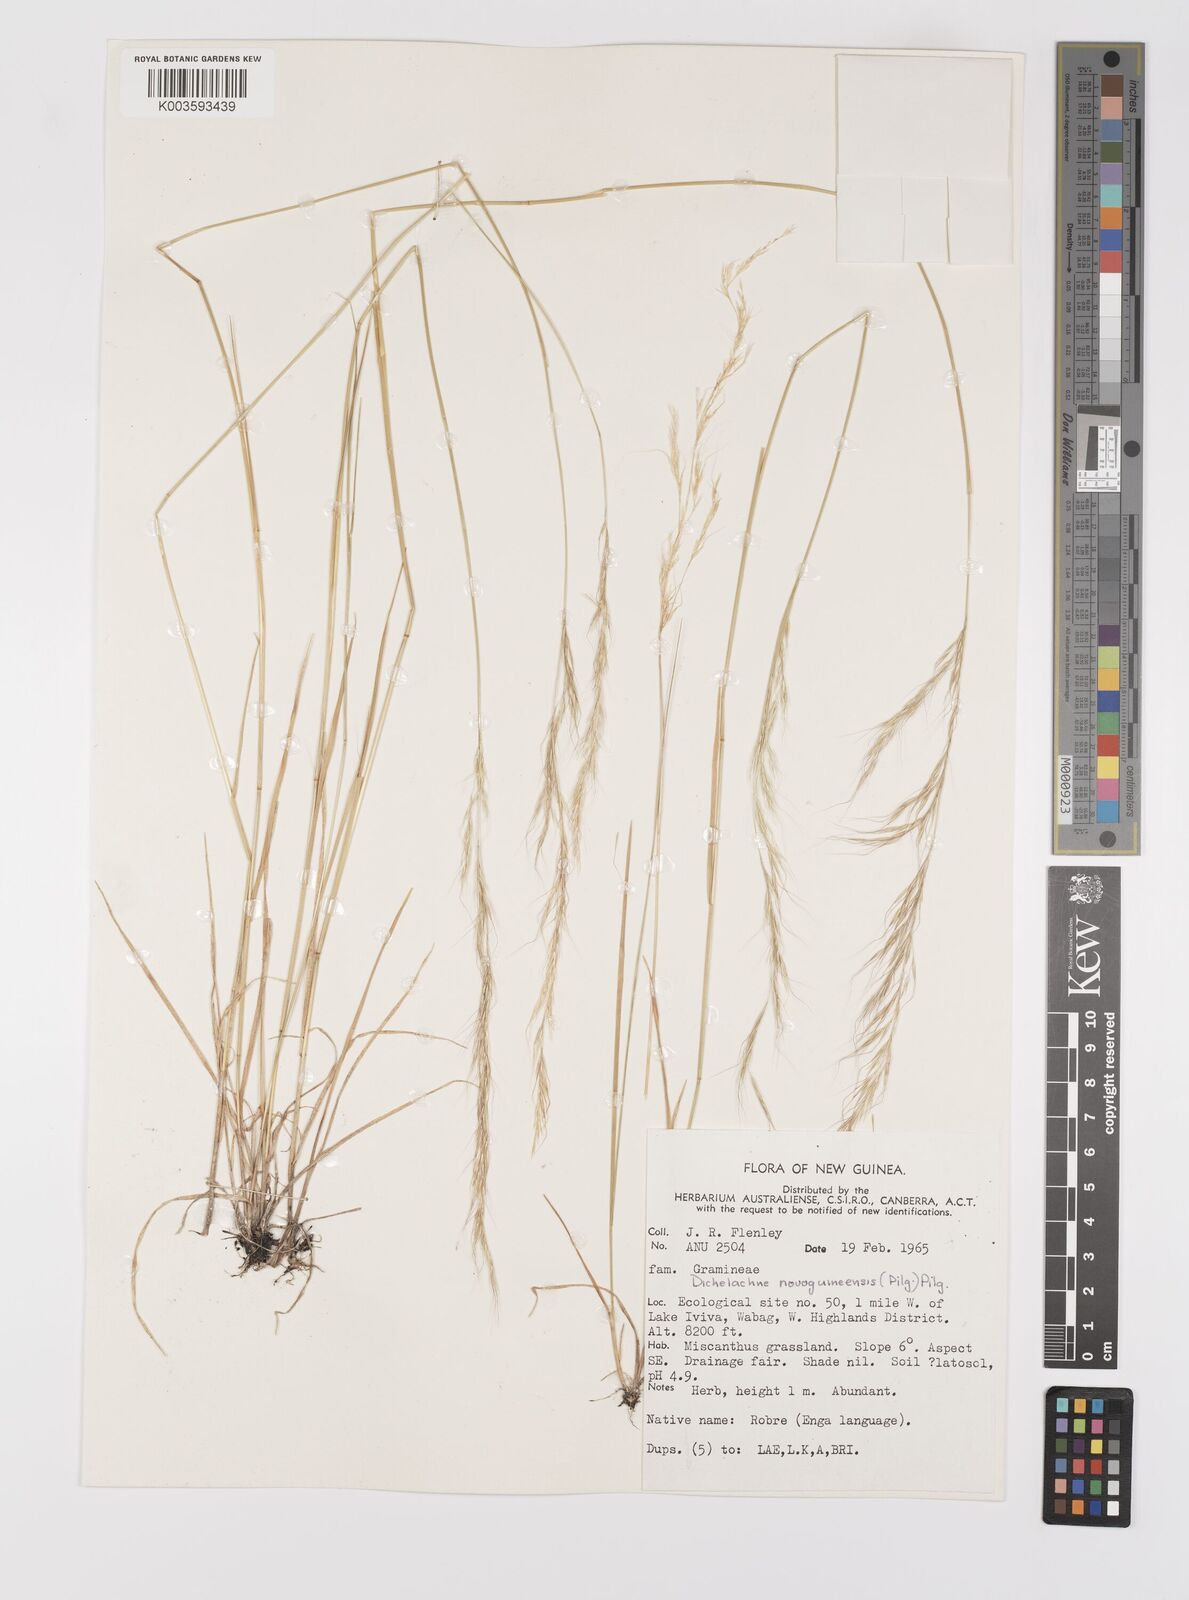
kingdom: Plantae
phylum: Tracheophyta
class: Liliopsida
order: Poales
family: Poaceae
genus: Dichelachne
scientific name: Dichelachne rara
